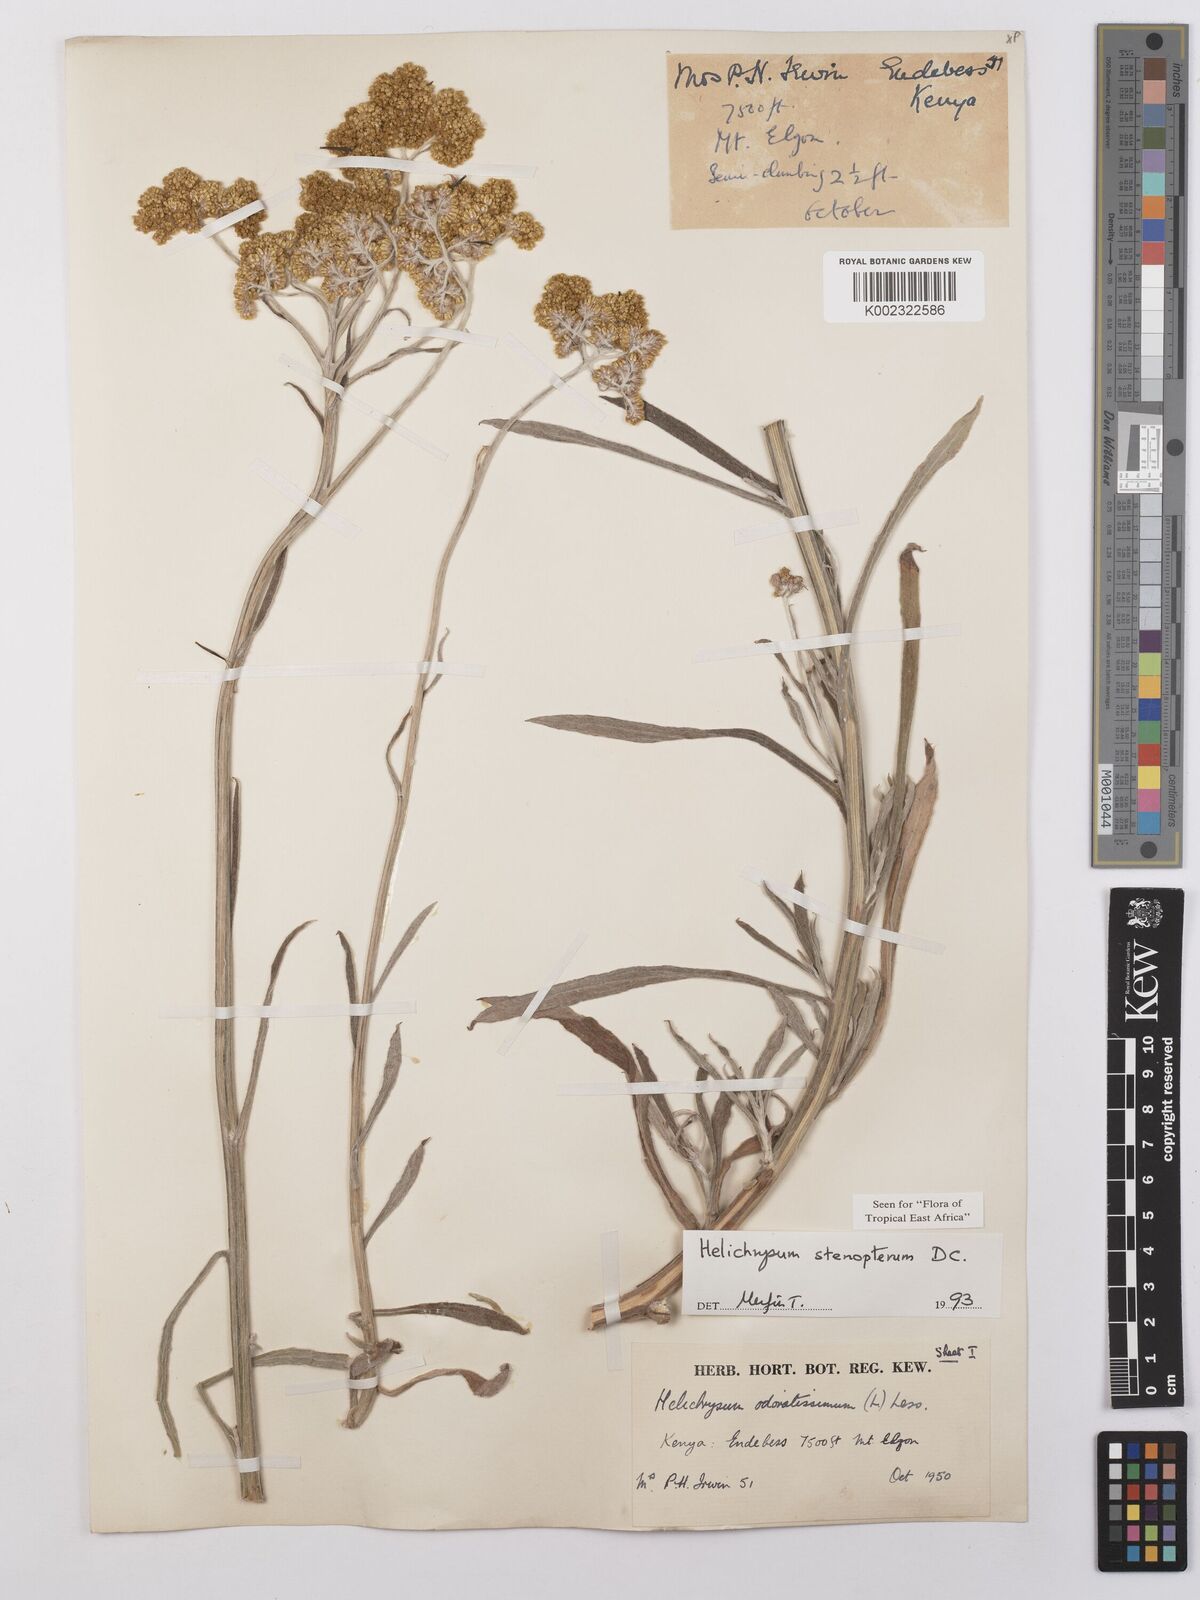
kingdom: Plantae
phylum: Tracheophyta
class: Magnoliopsida
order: Asterales
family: Asteraceae
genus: Helichrysum
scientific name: Helichrysum stenopterum
